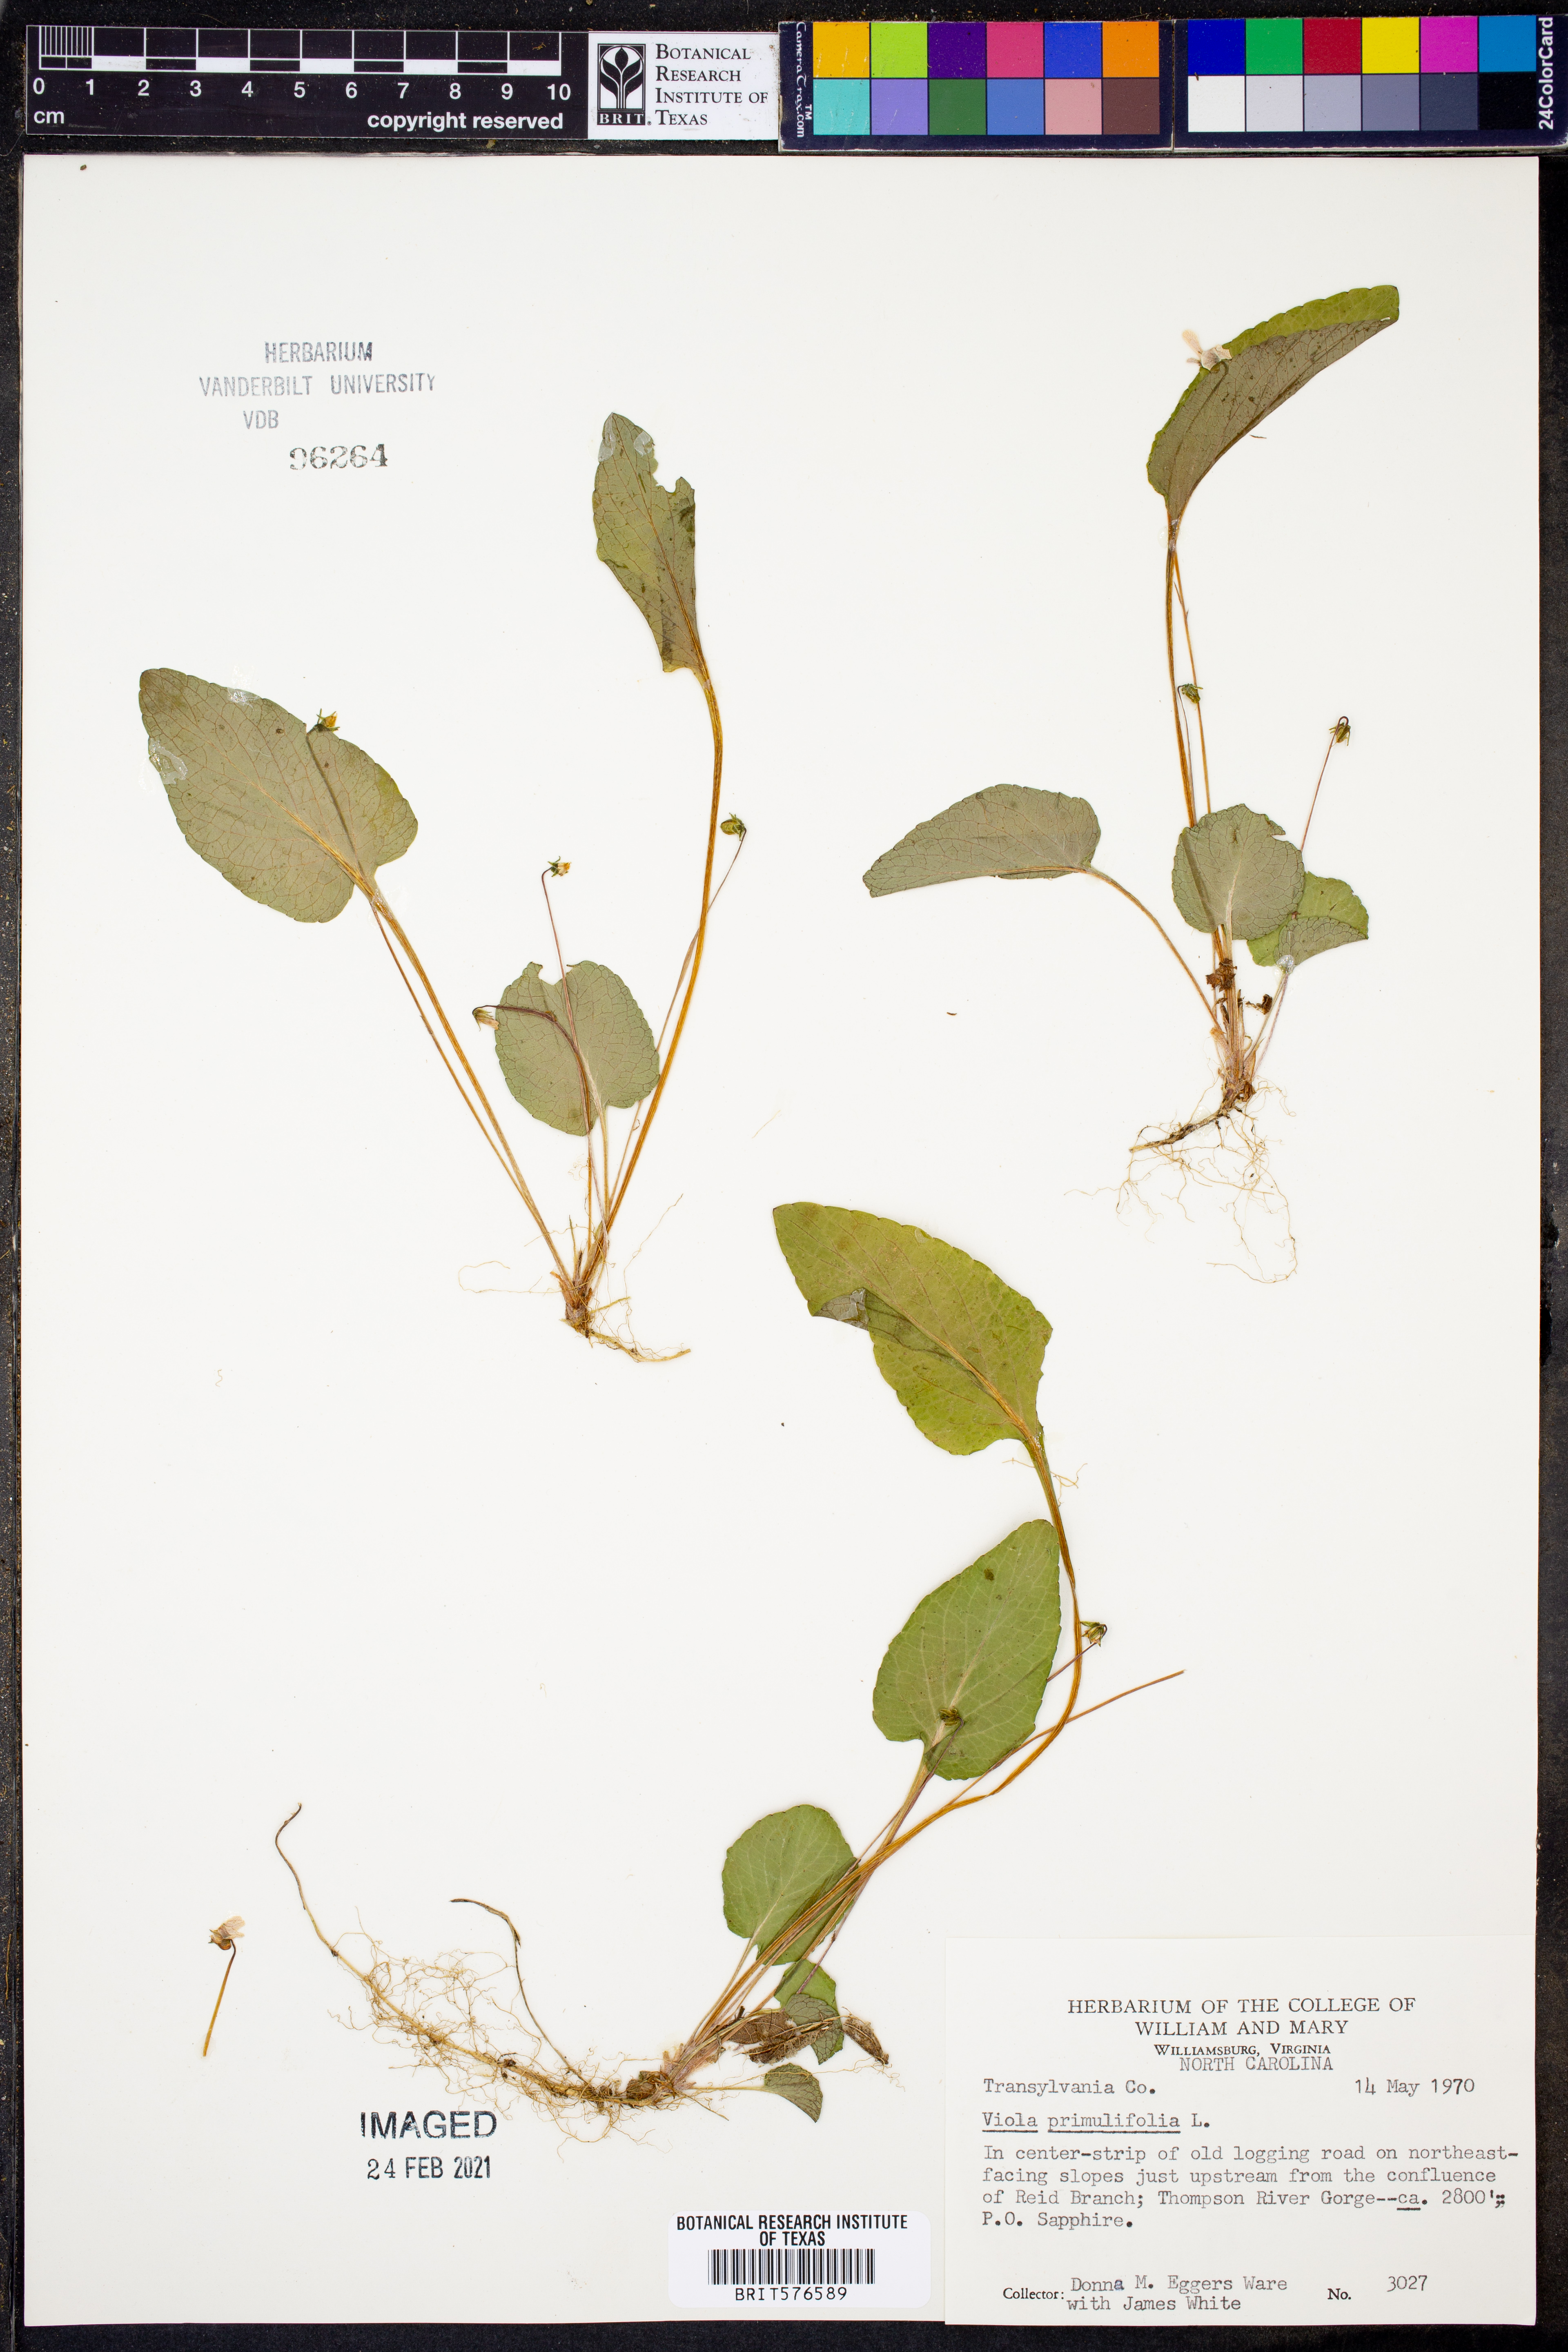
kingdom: Plantae
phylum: Tracheophyta
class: Magnoliopsida
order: Malpighiales
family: Violaceae
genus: Viola
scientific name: Viola primulifolia
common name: Primrose-leaf violet
